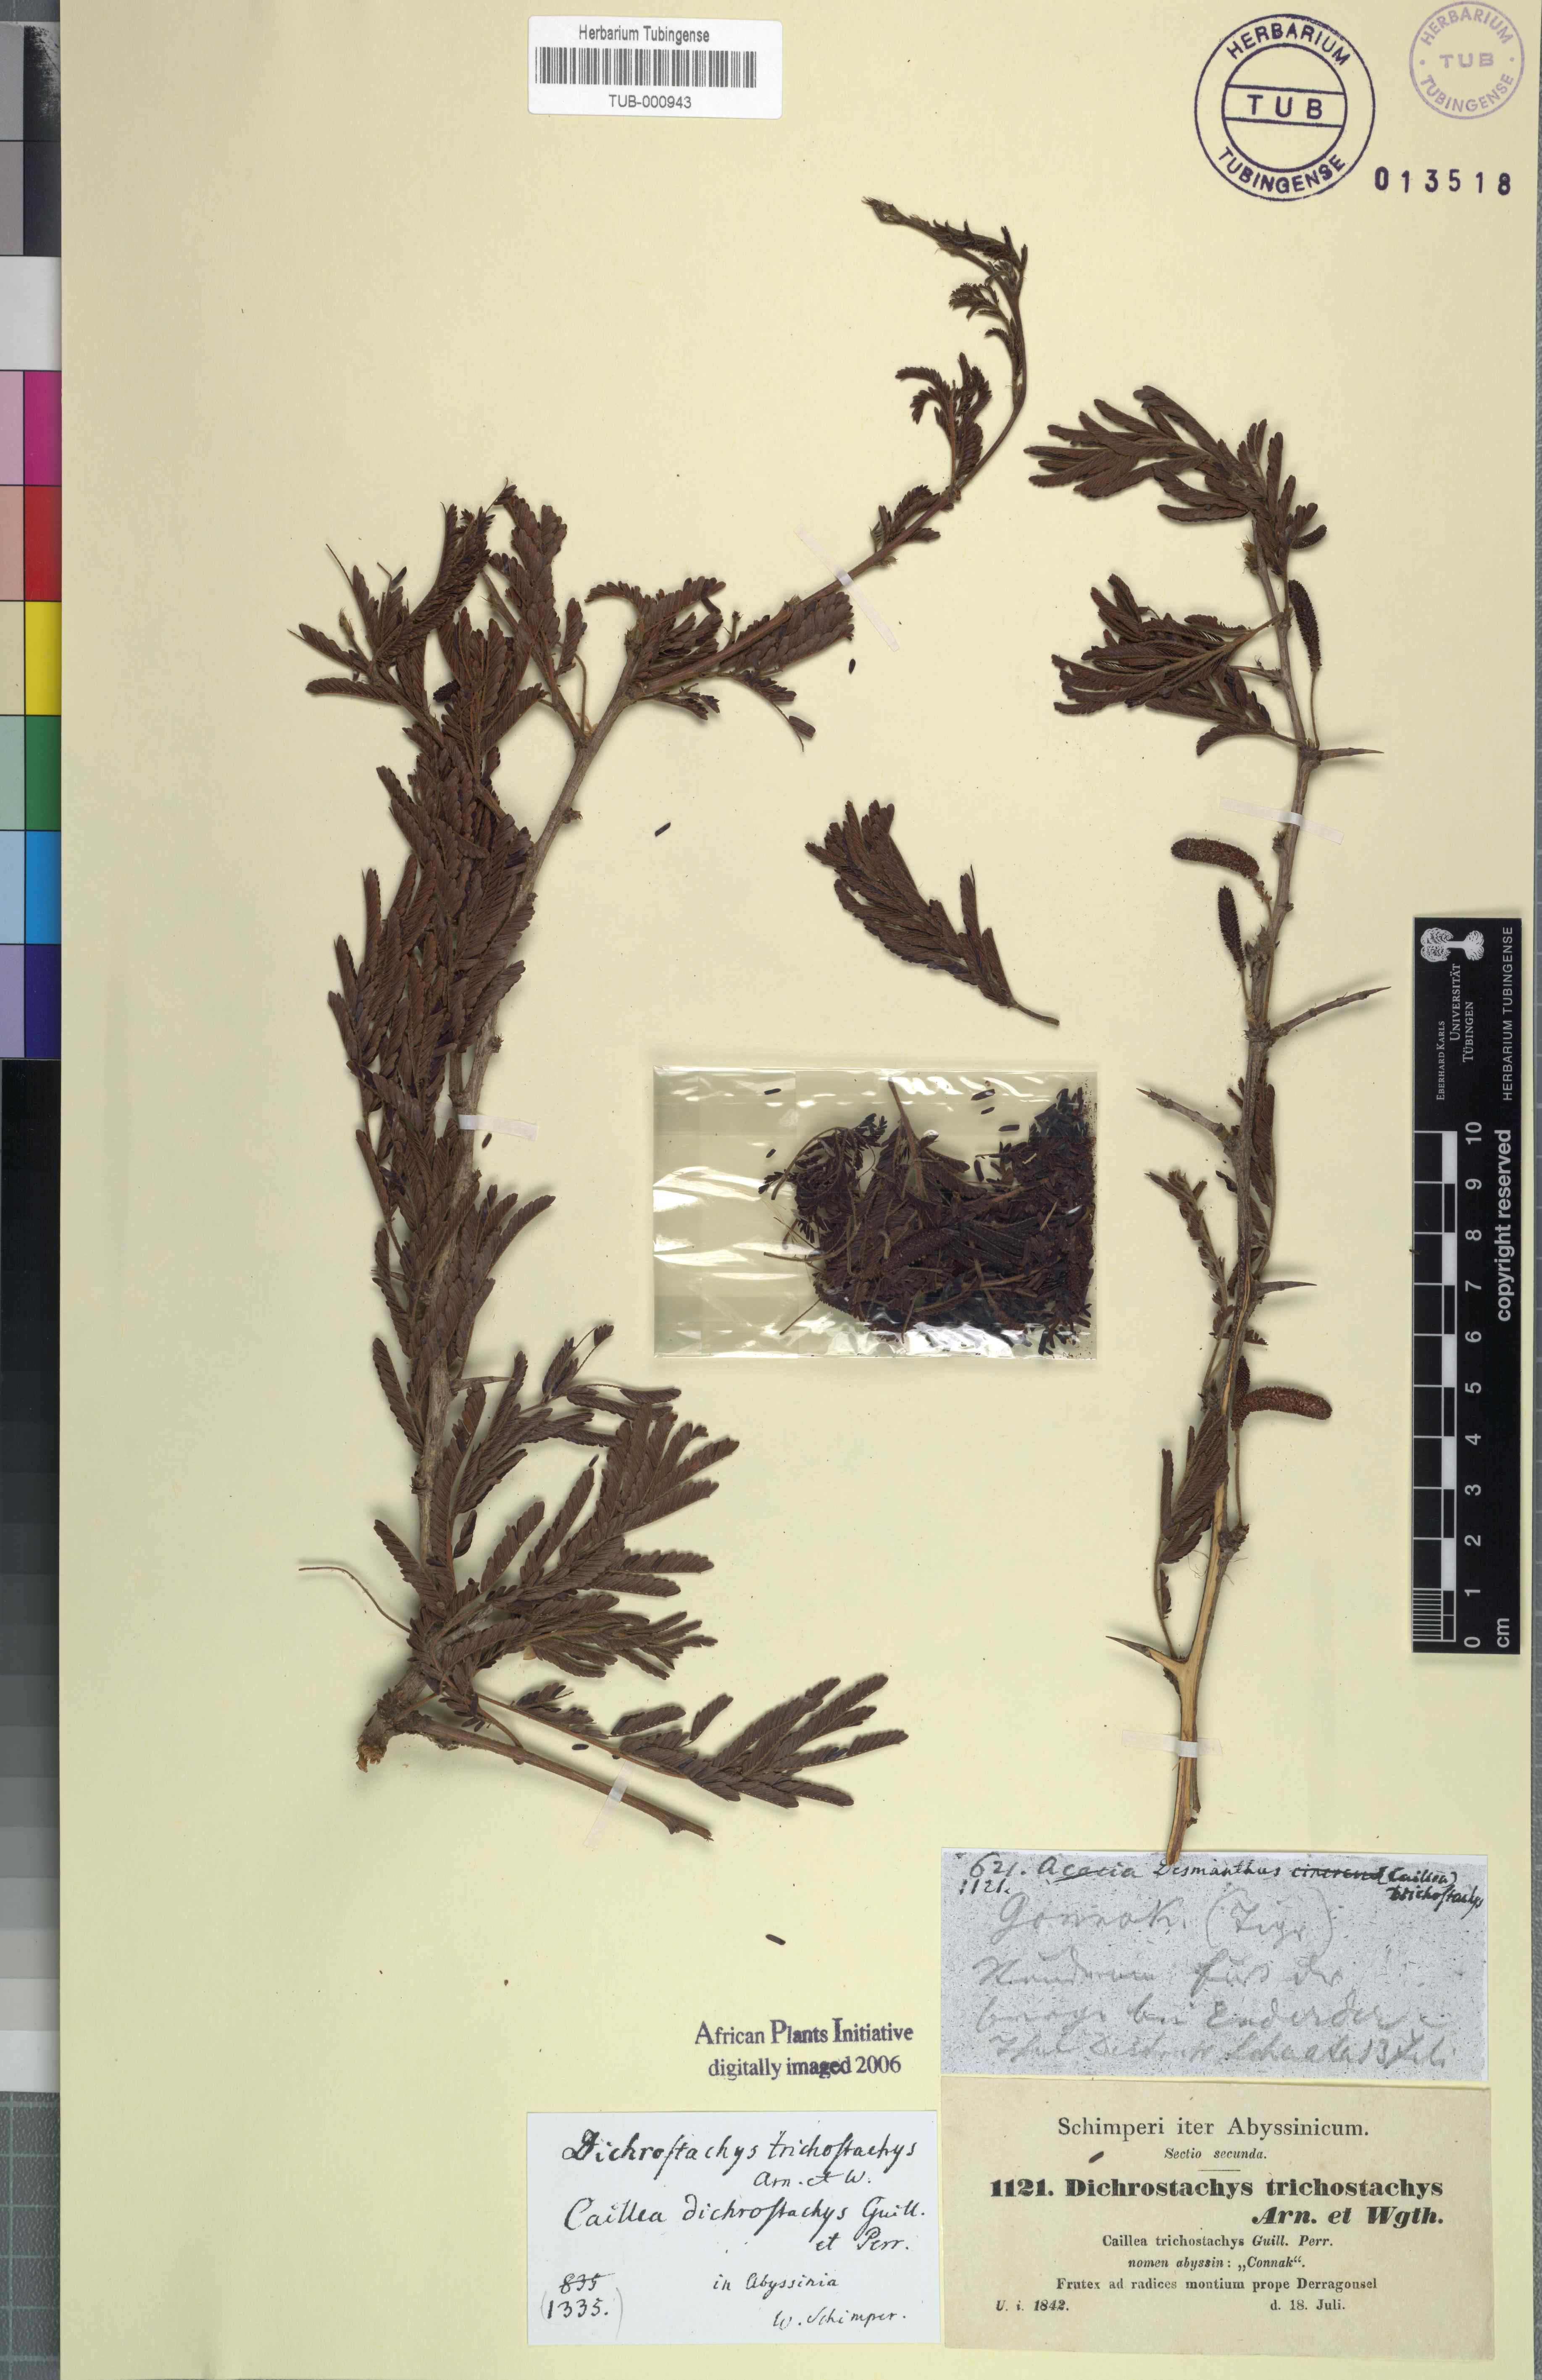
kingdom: Plantae
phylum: Tracheophyta
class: Magnoliopsida
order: Fabales
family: Fabaceae
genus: Dichrostachys
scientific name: Dichrostachys cinerea
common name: Sicklebush
